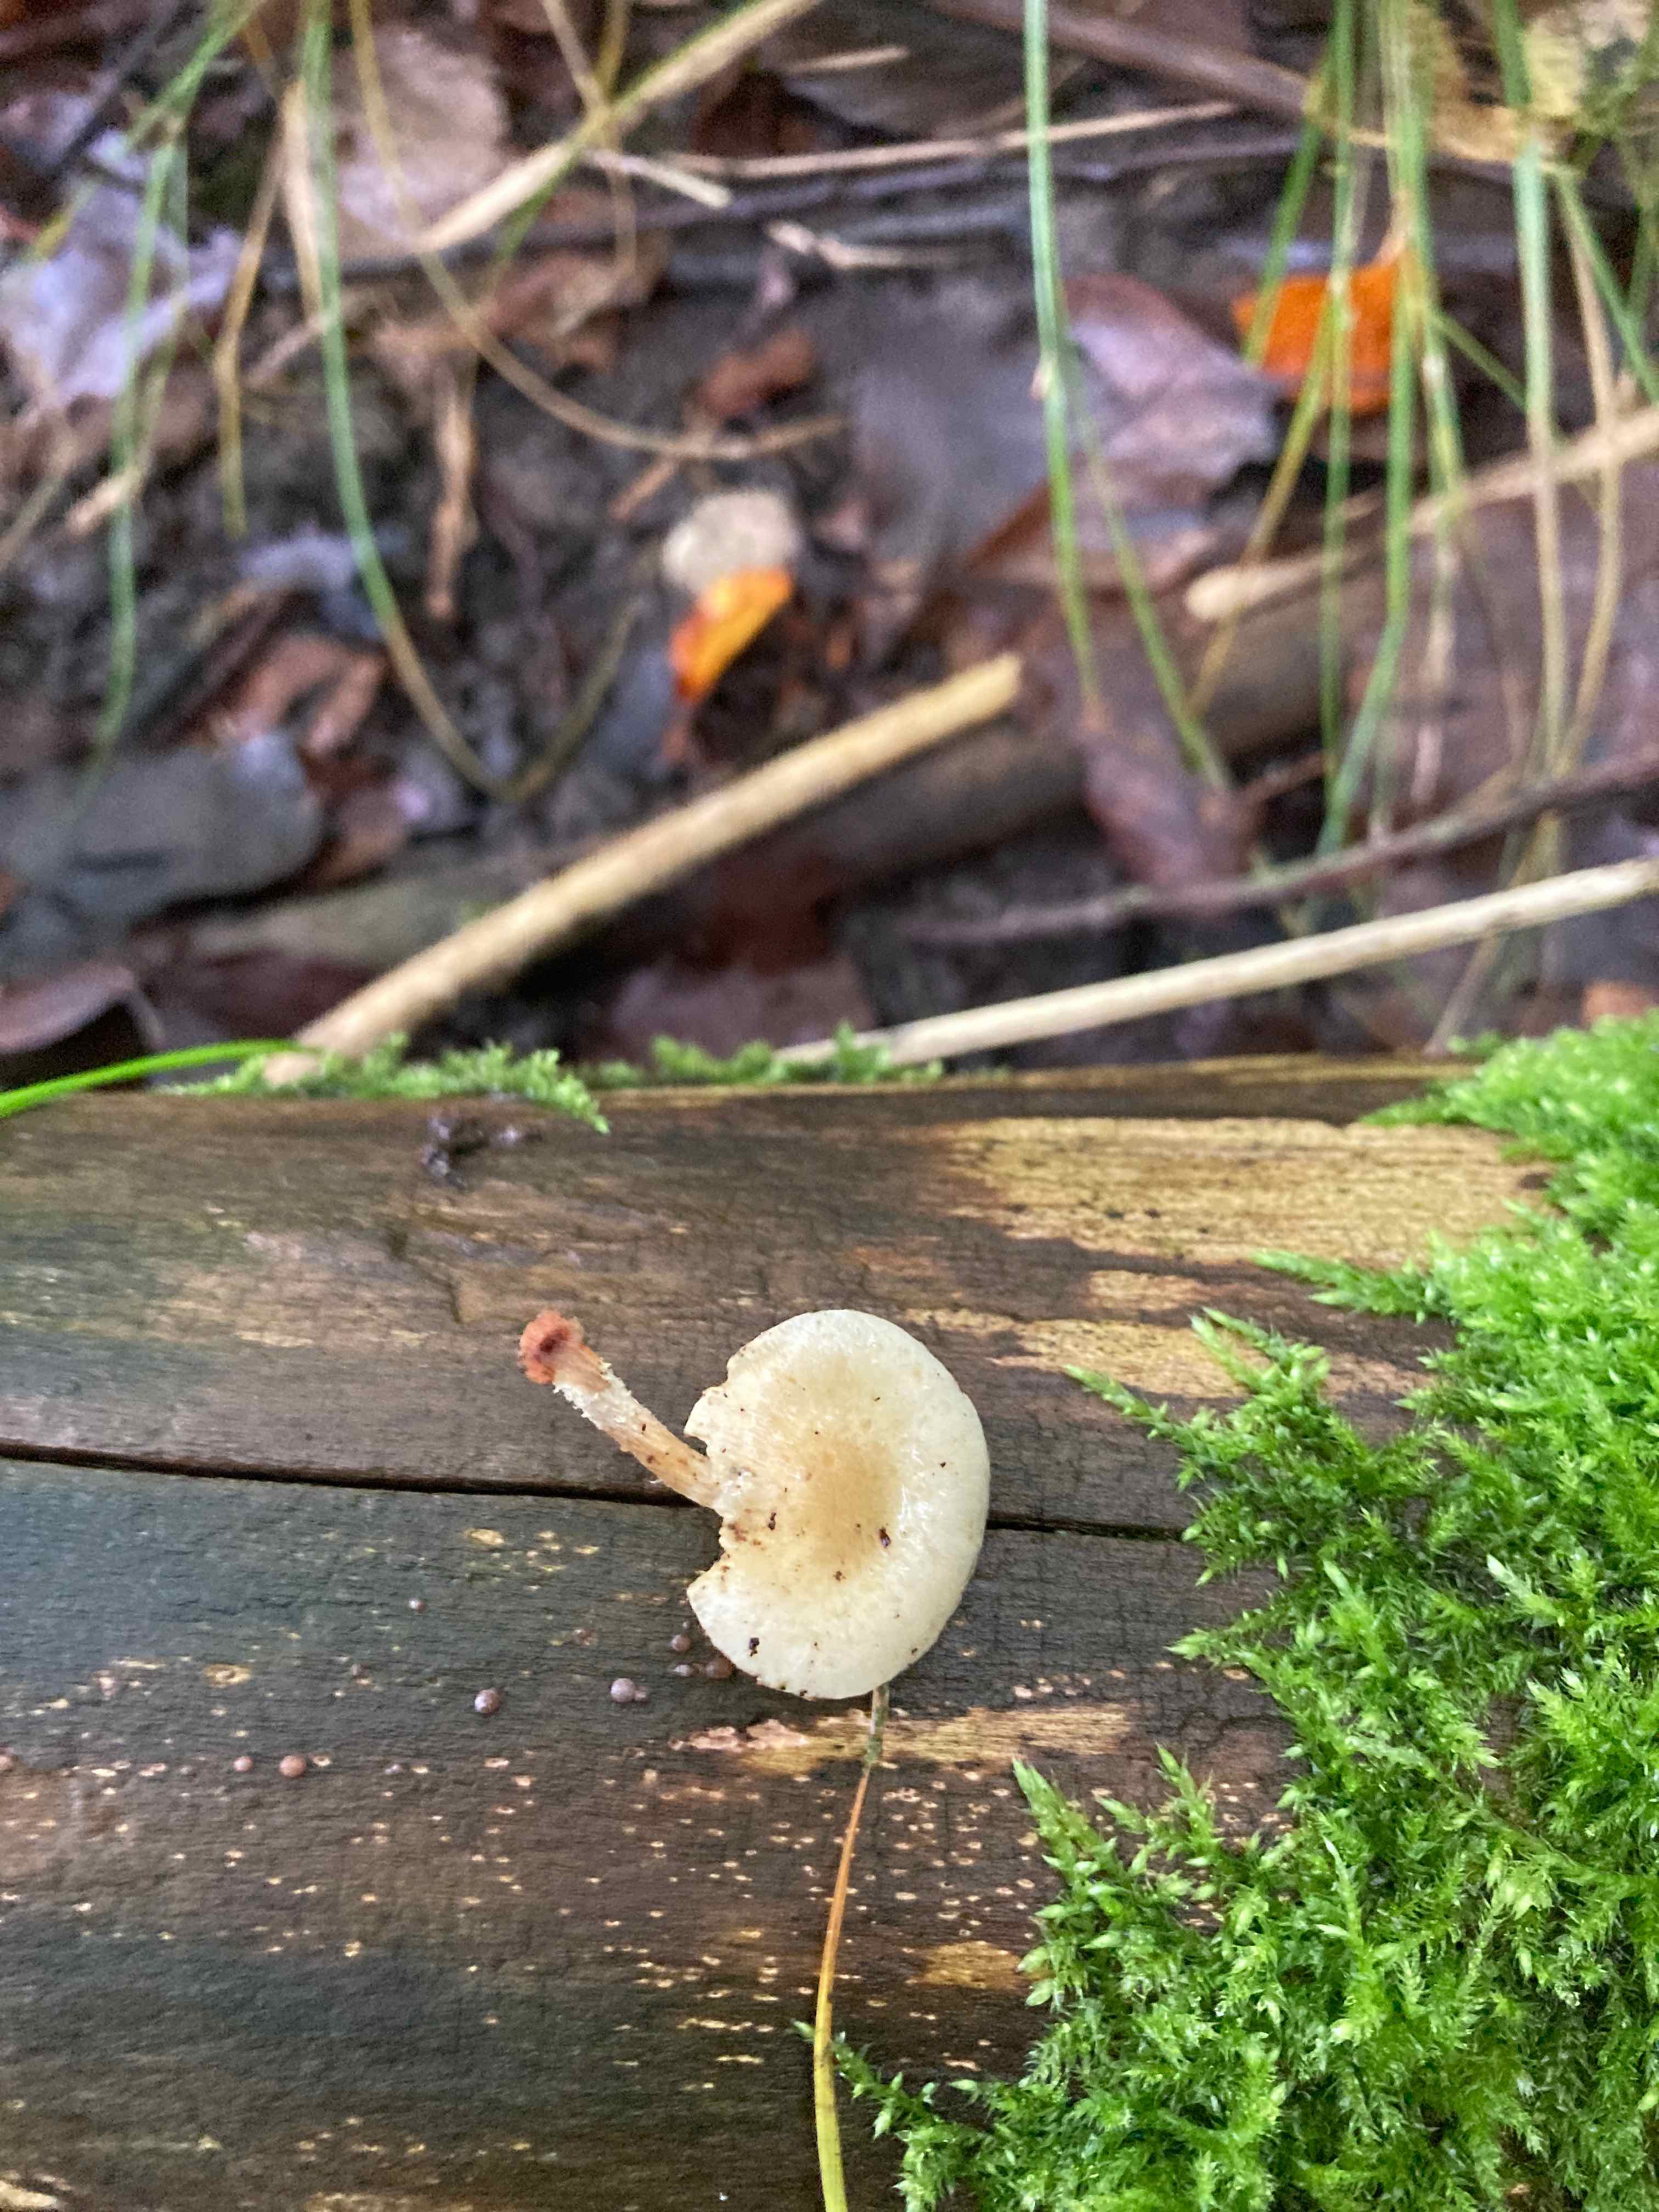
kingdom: Fungi
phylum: Basidiomycota
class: Agaricomycetes
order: Agaricales
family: Strophariaceae
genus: Pholiota
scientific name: Pholiota gummosa
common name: grøngul skælhat
